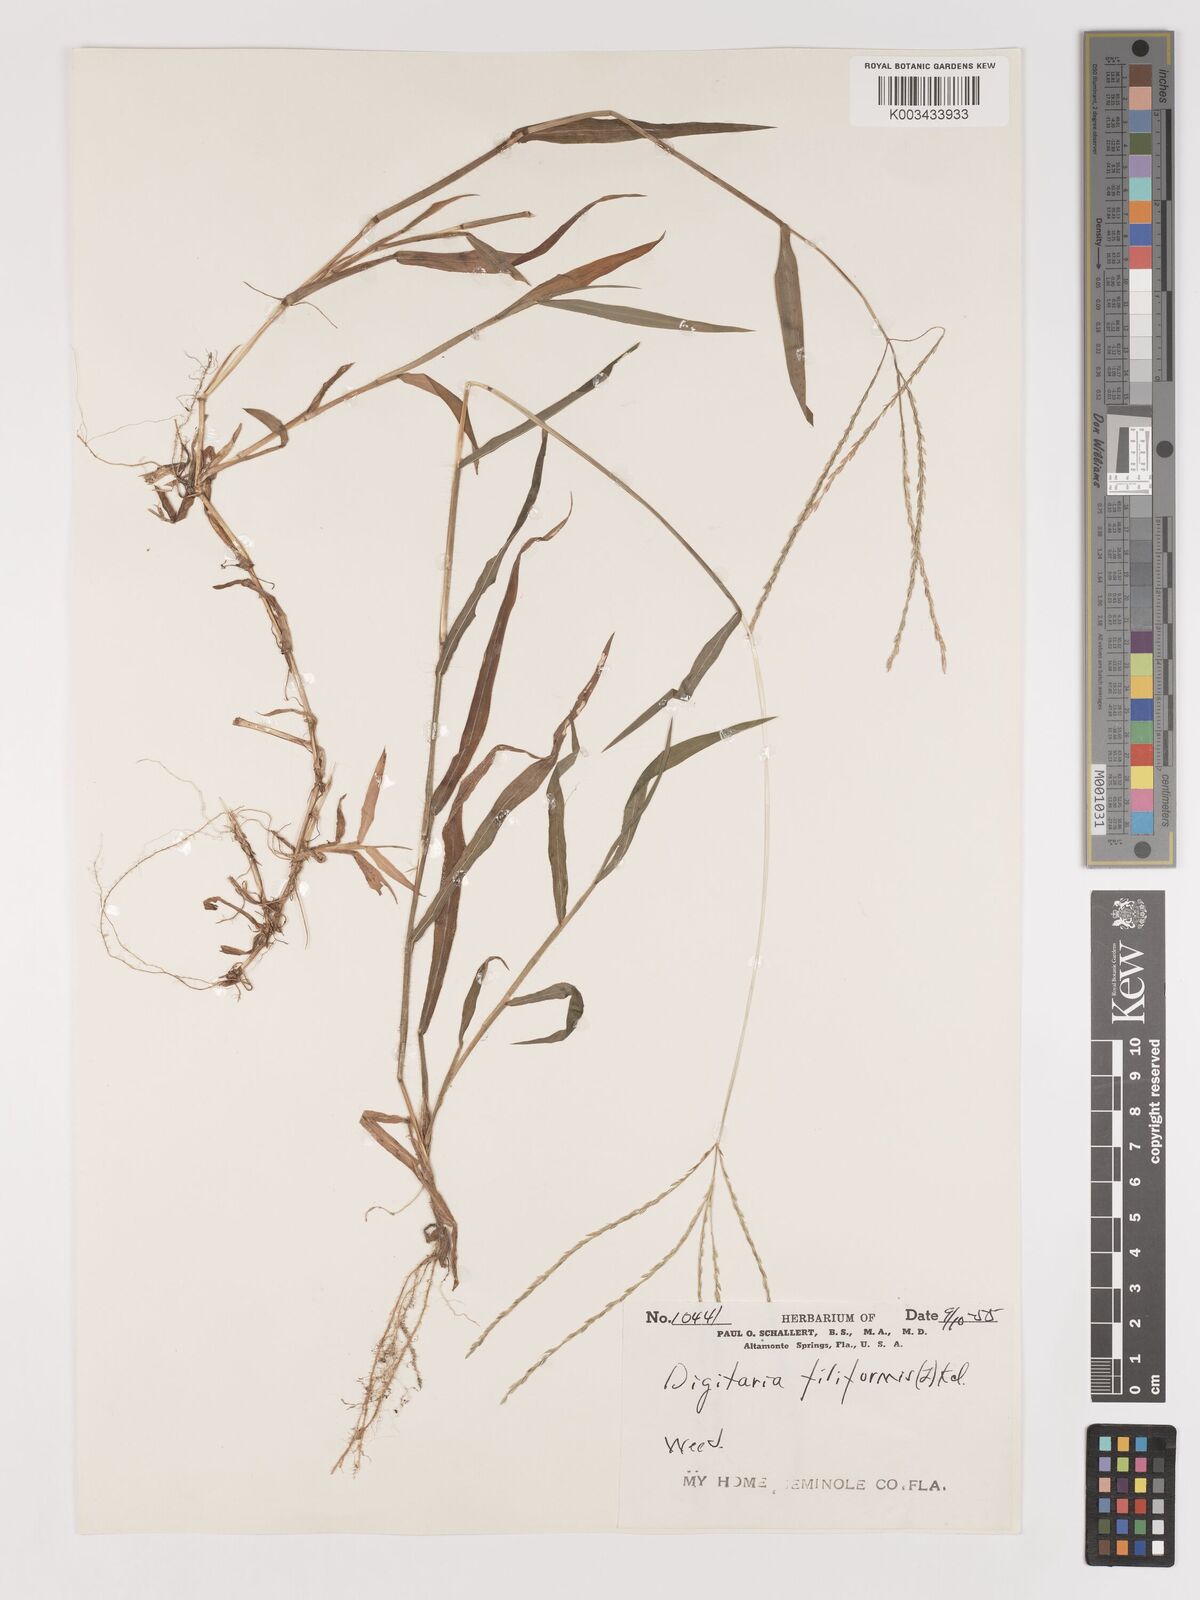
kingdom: Plantae
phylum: Tracheophyta
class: Liliopsida
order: Poales
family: Poaceae
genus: Digitaria
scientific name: Digitaria filiformis
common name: Slender crabgrass
